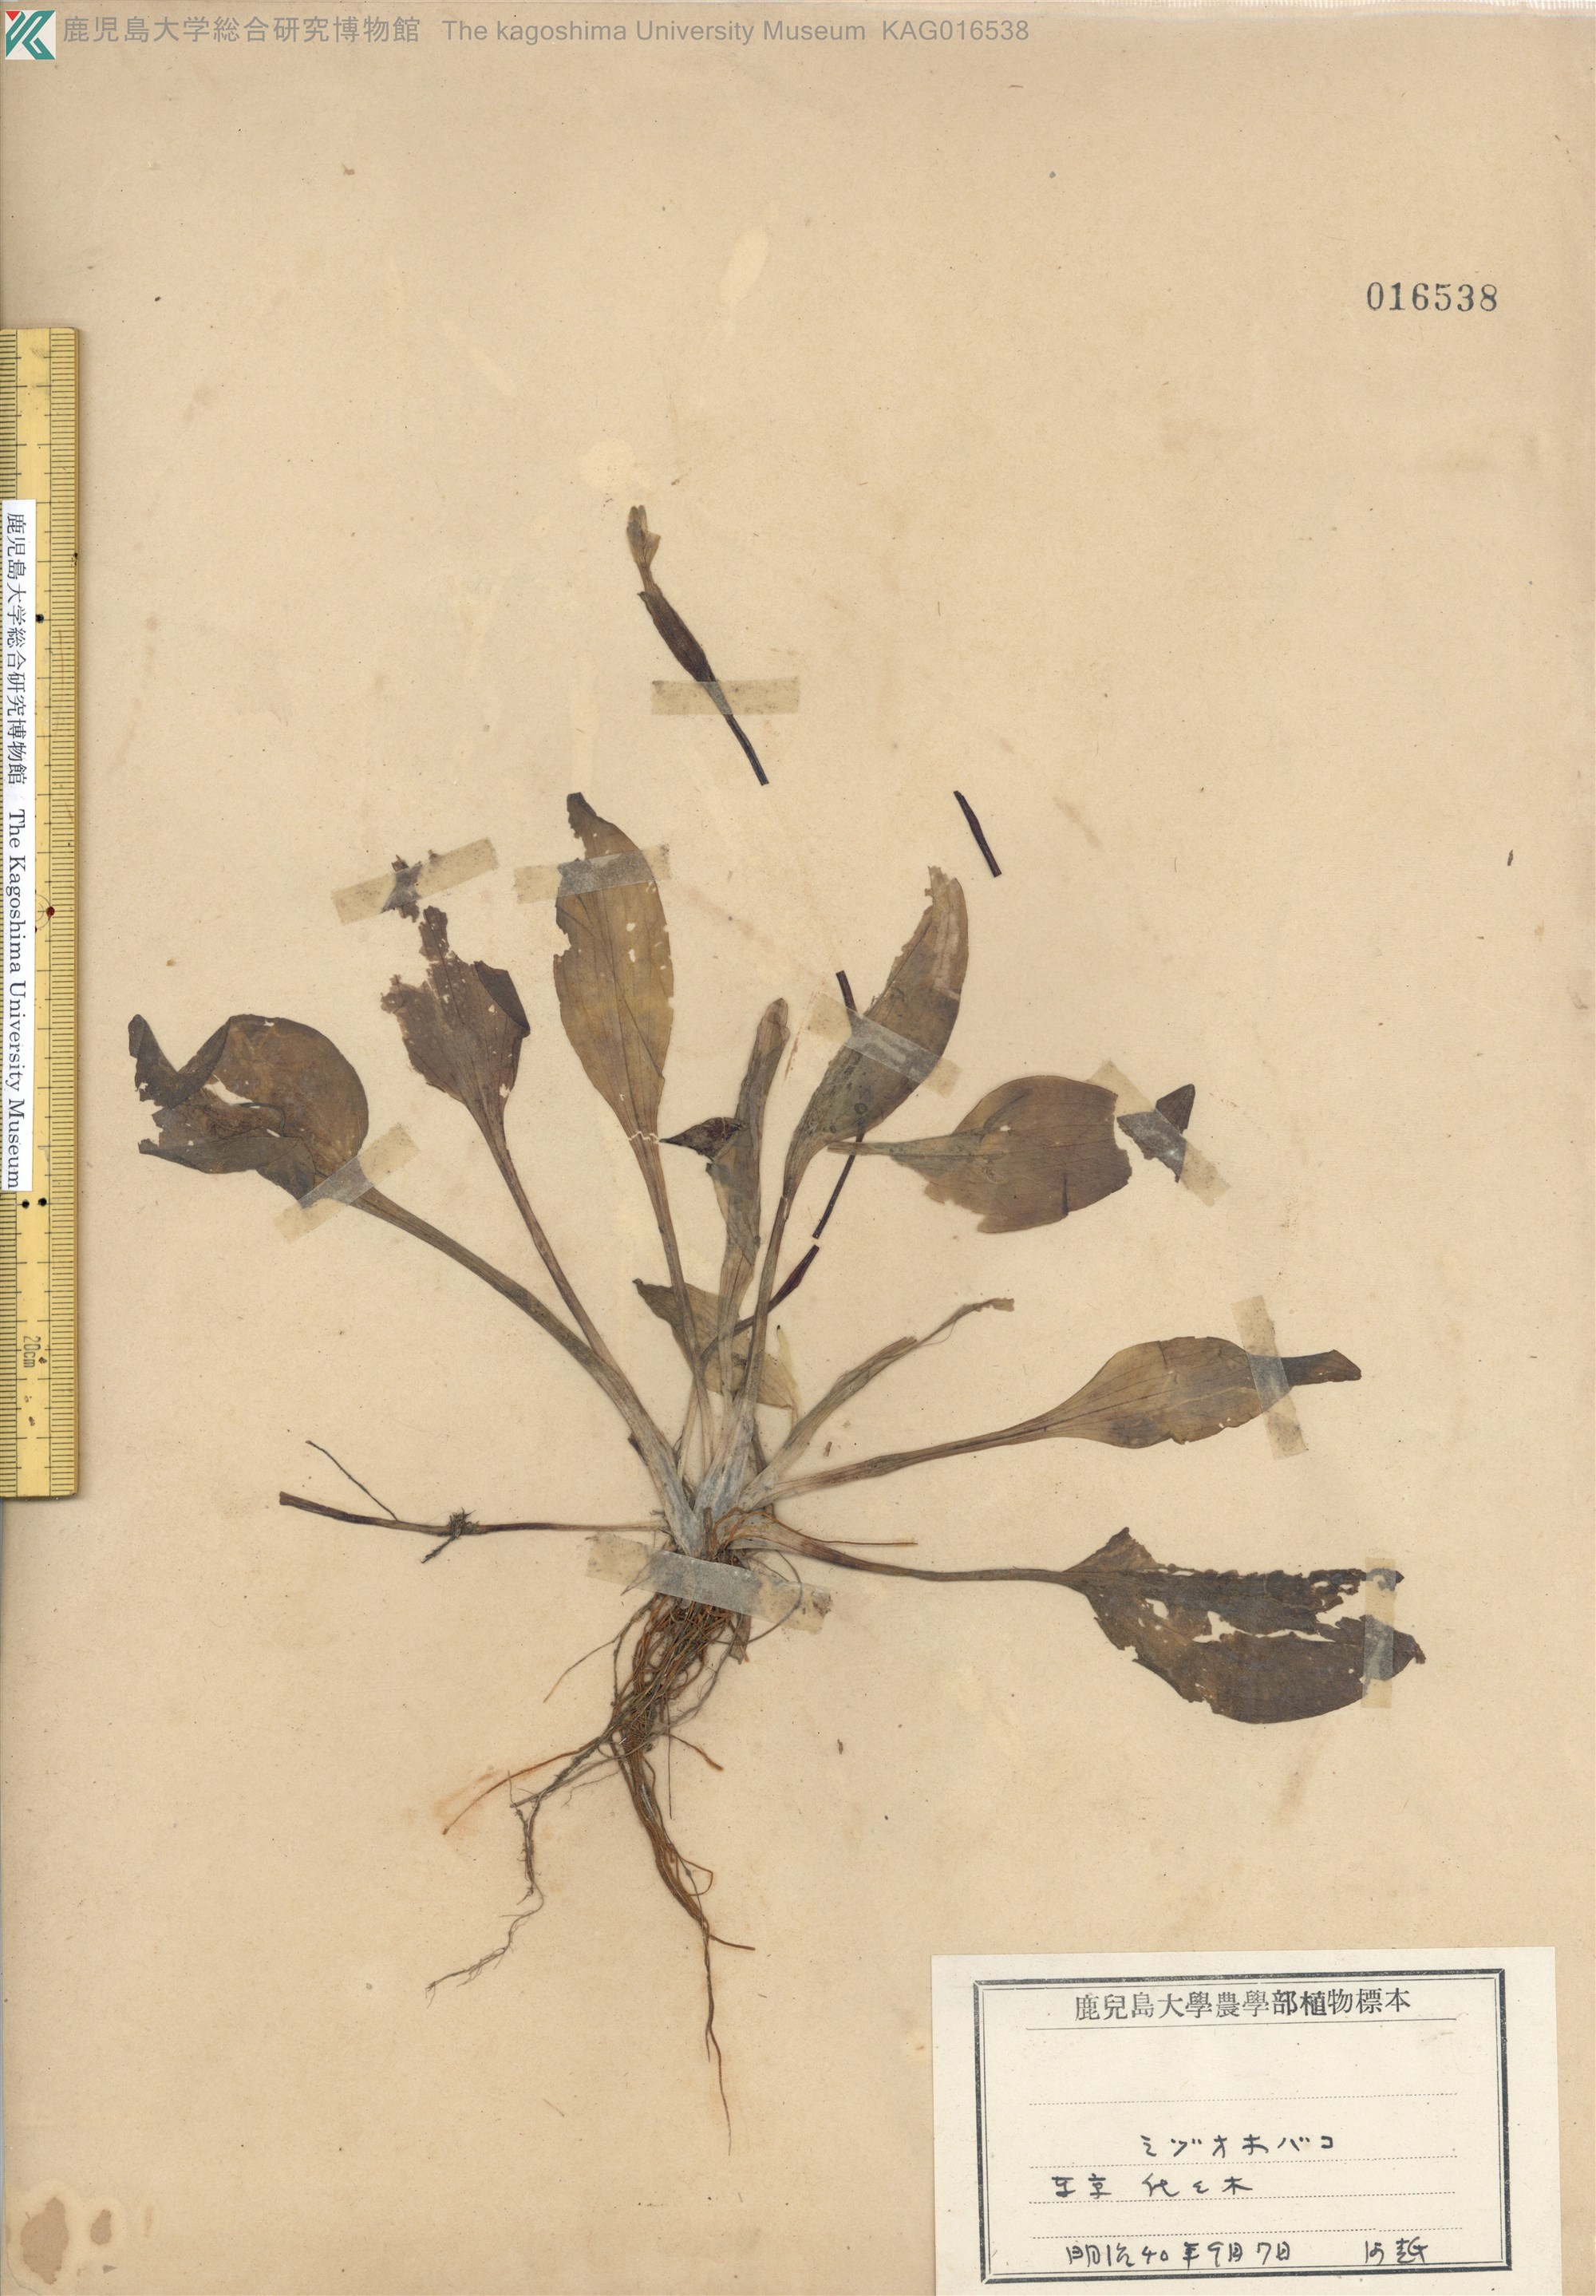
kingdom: Plantae
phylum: Tracheophyta
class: Liliopsida
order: Alismatales
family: Hydrocharitaceae
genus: Ottelia
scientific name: Ottelia alismoides
